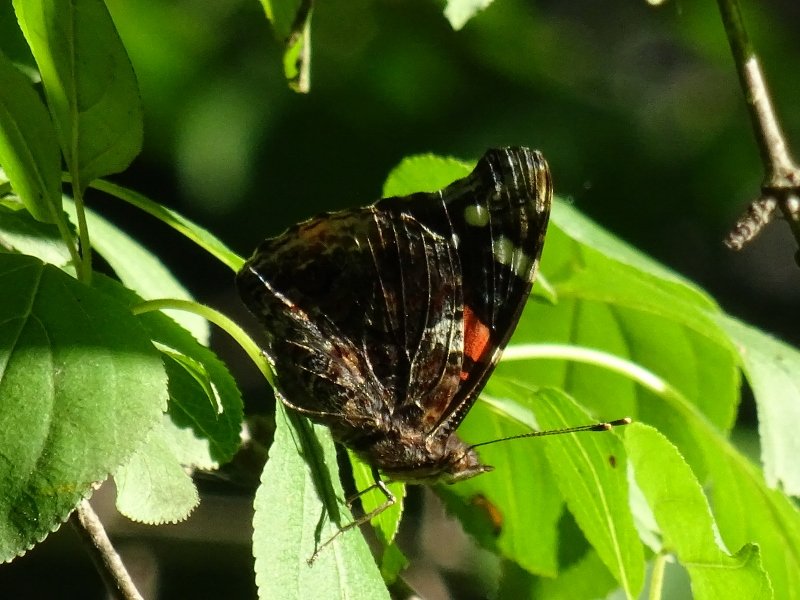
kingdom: Animalia
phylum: Arthropoda
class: Insecta
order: Lepidoptera
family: Nymphalidae
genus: Vanessa
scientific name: Vanessa atalanta
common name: Red Admiral
